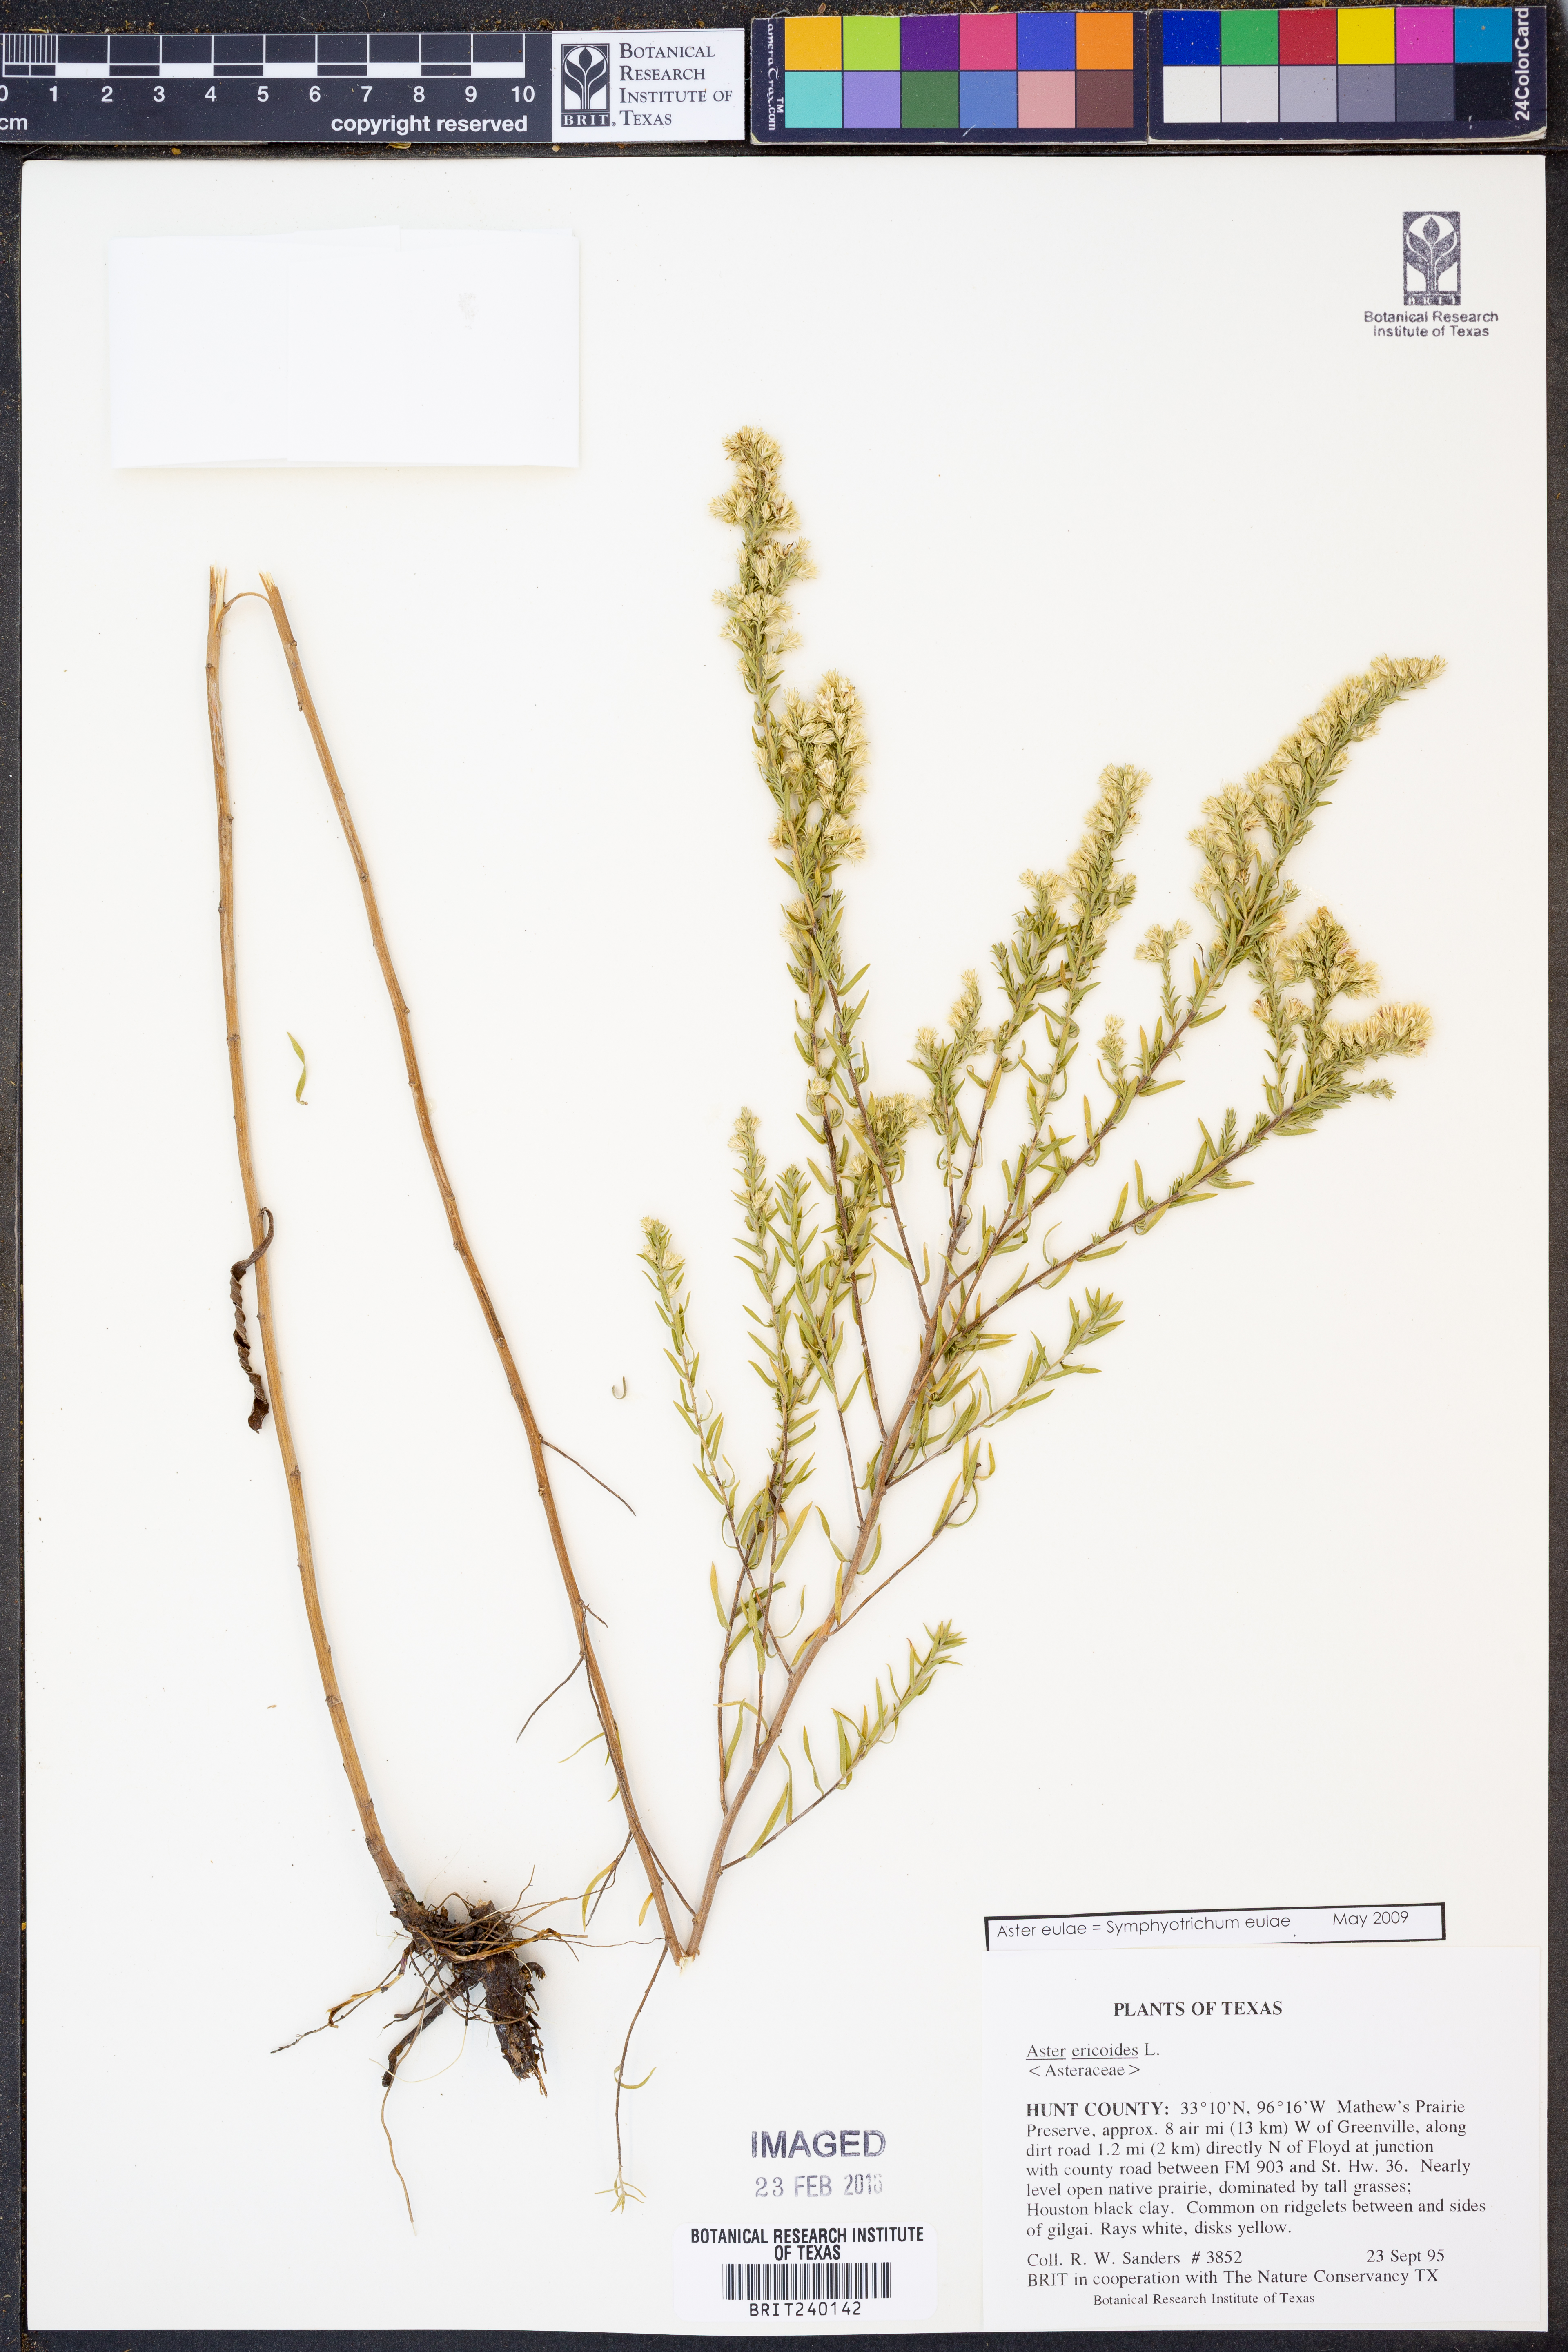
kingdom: Plantae
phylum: Tracheophyta
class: Magnoliopsida
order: Asterales
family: Asteraceae
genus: Symphyotrichum
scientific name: Symphyotrichum eulae
